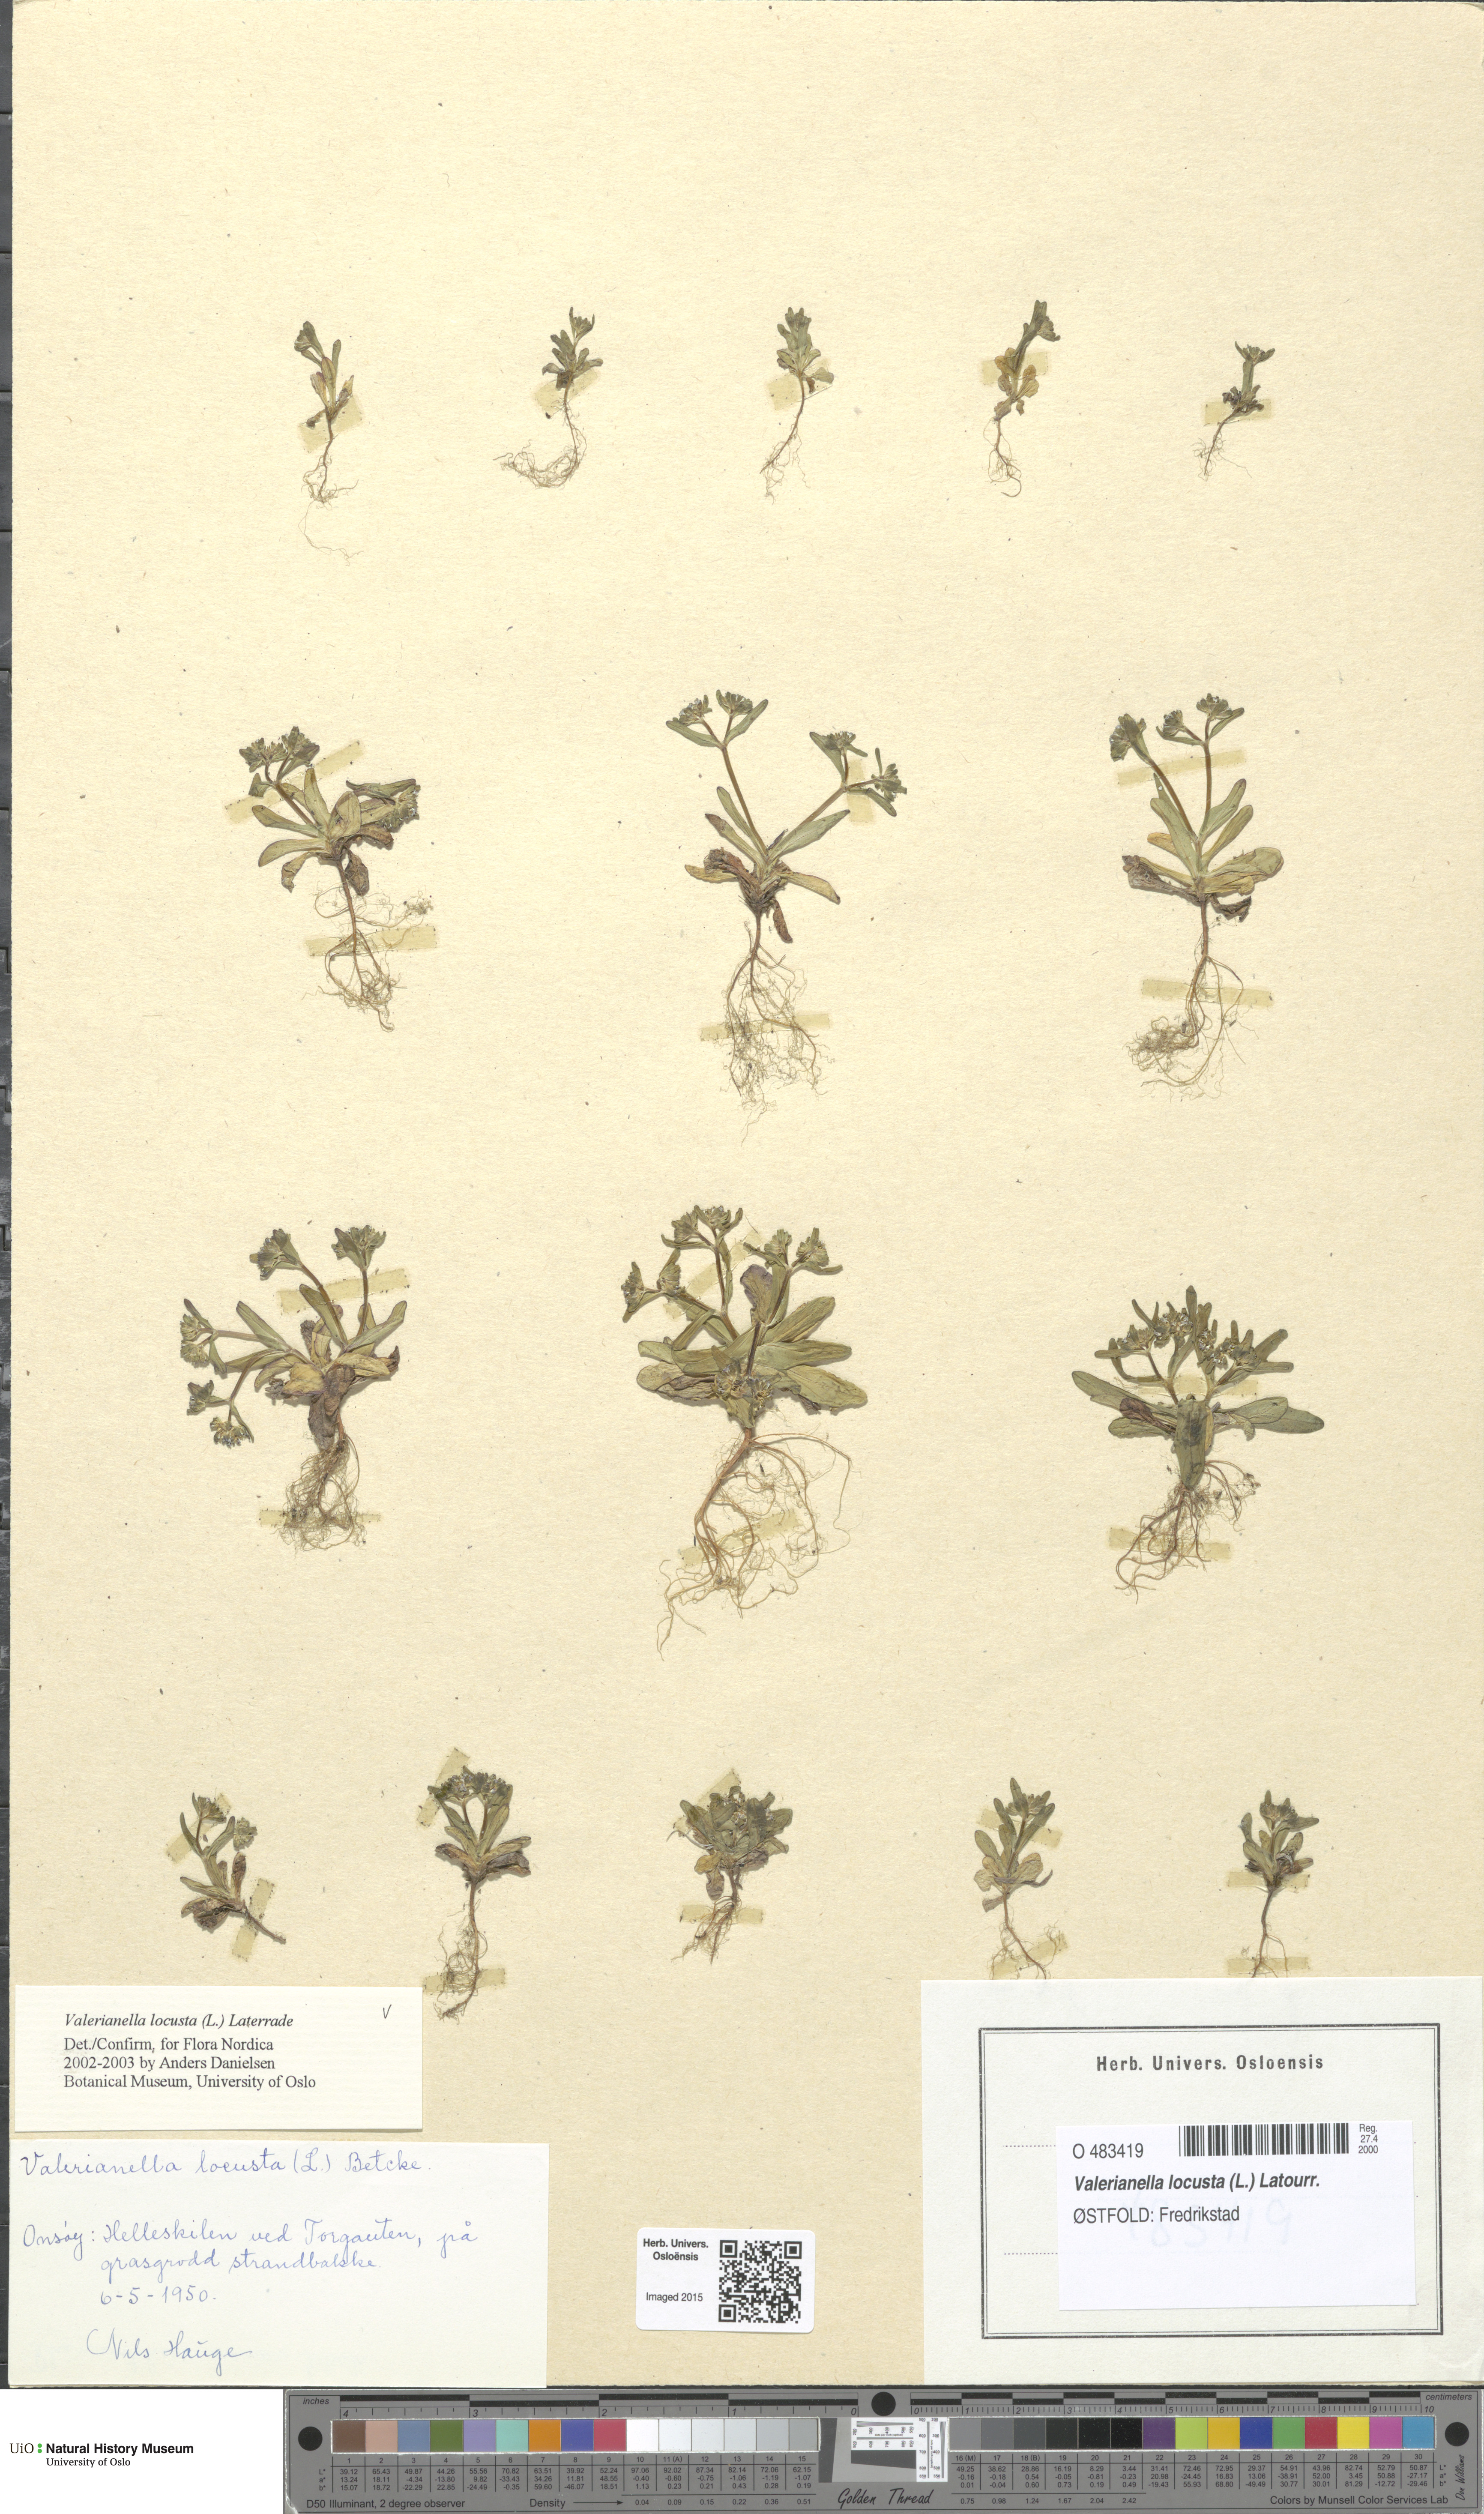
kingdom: Plantae
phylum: Tracheophyta
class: Magnoliopsida
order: Dipsacales
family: Caprifoliaceae
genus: Valerianella
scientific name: Valerianella locusta
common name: Common cornsalad
